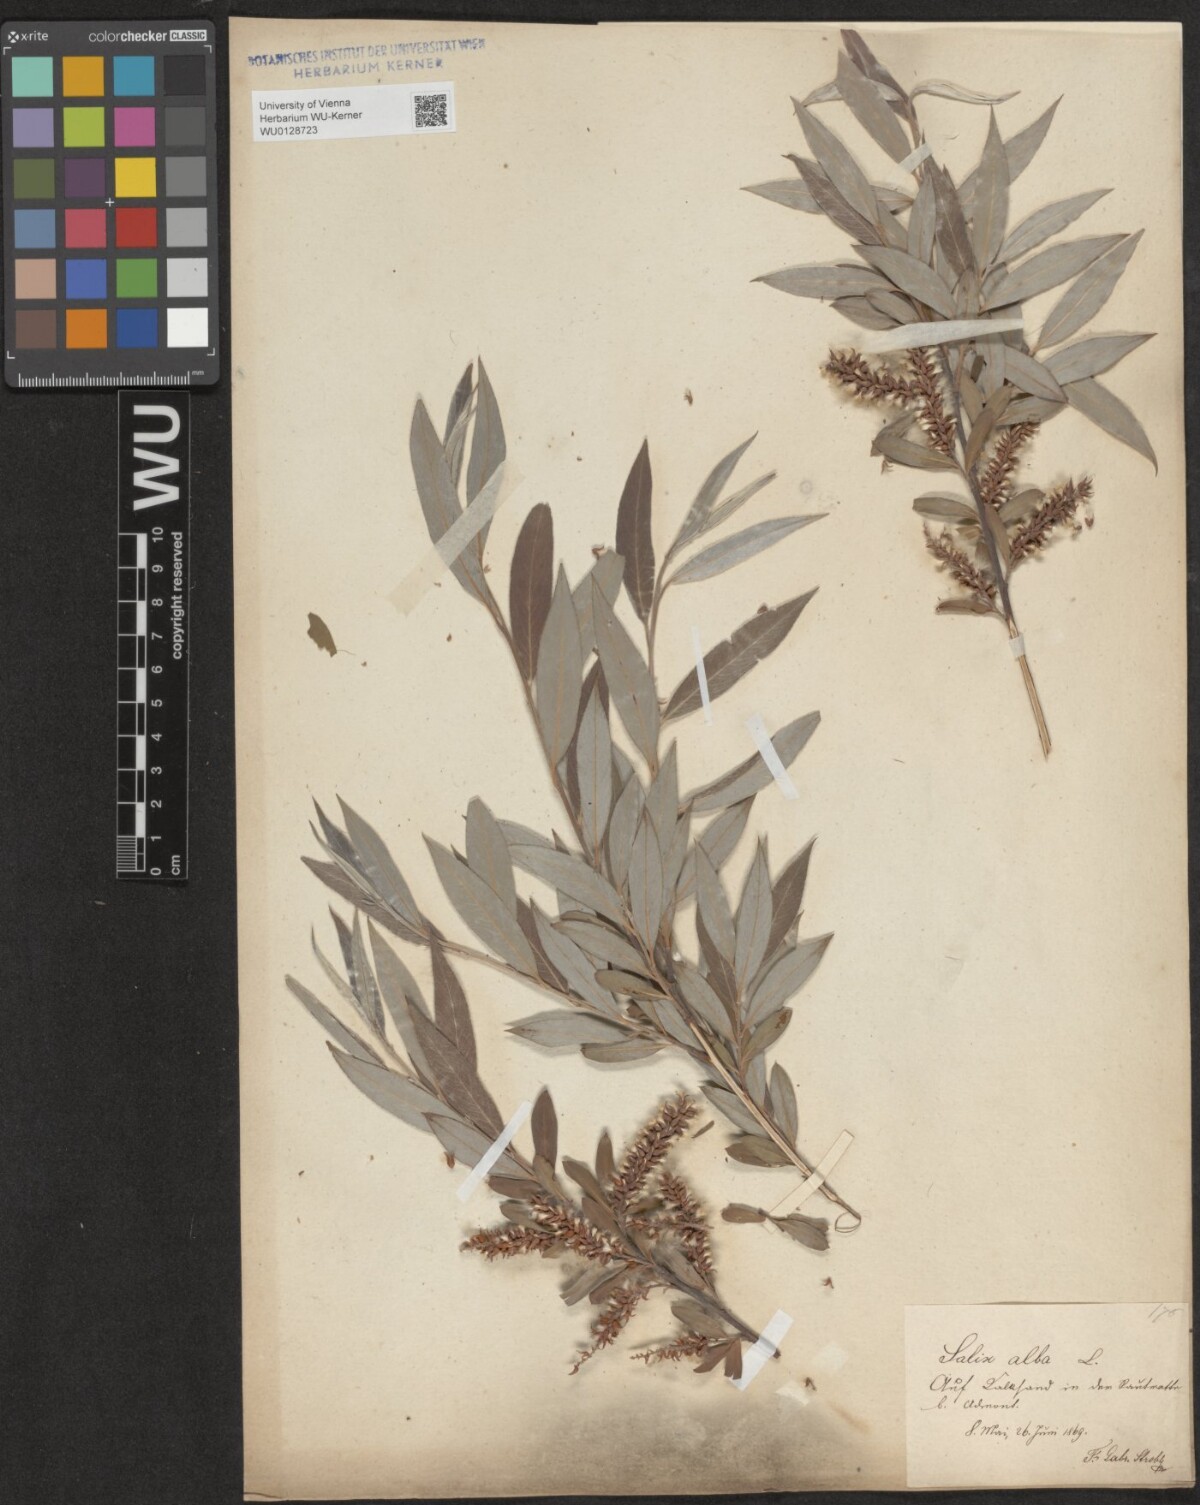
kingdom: Plantae
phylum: Tracheophyta
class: Magnoliopsida
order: Malpighiales
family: Salicaceae
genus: Salix
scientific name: Salix alba
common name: White willow
